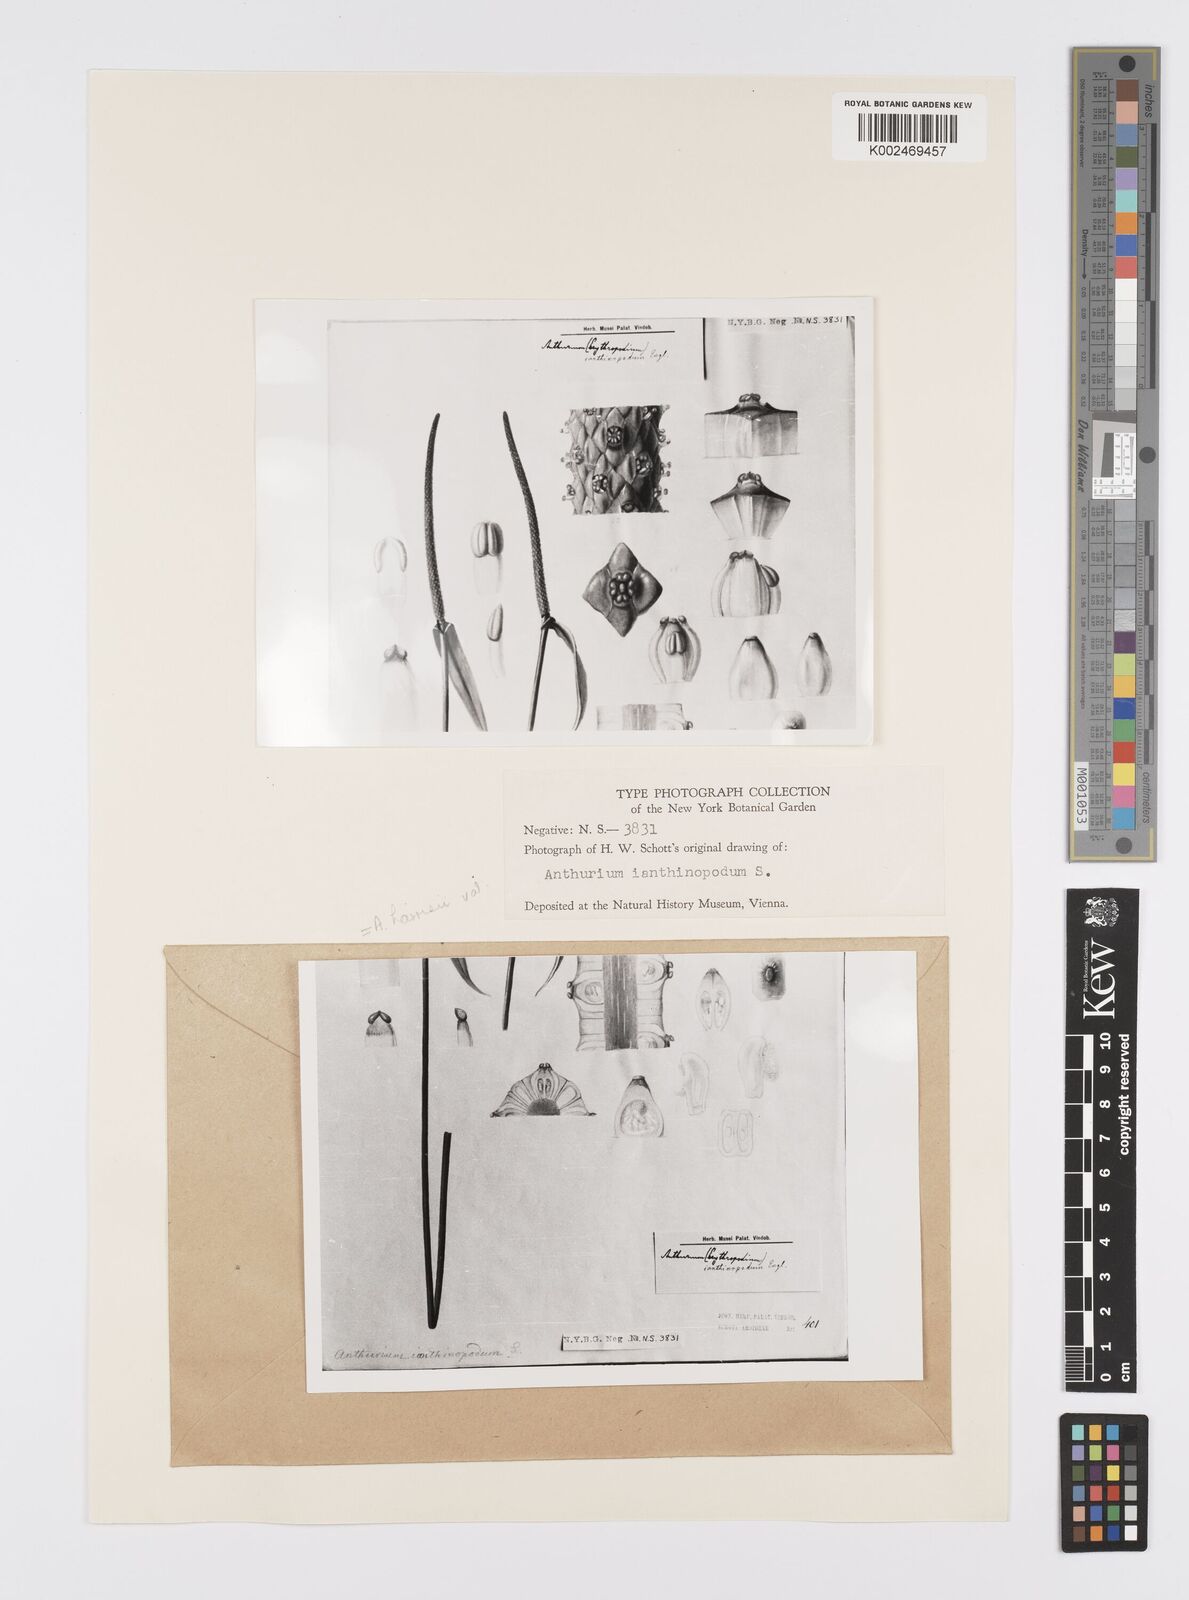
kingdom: Plantae
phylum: Tracheophyta
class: Liliopsida
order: Alismatales
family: Araceae
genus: Anthurium
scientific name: Anthurium ianthinopodum
